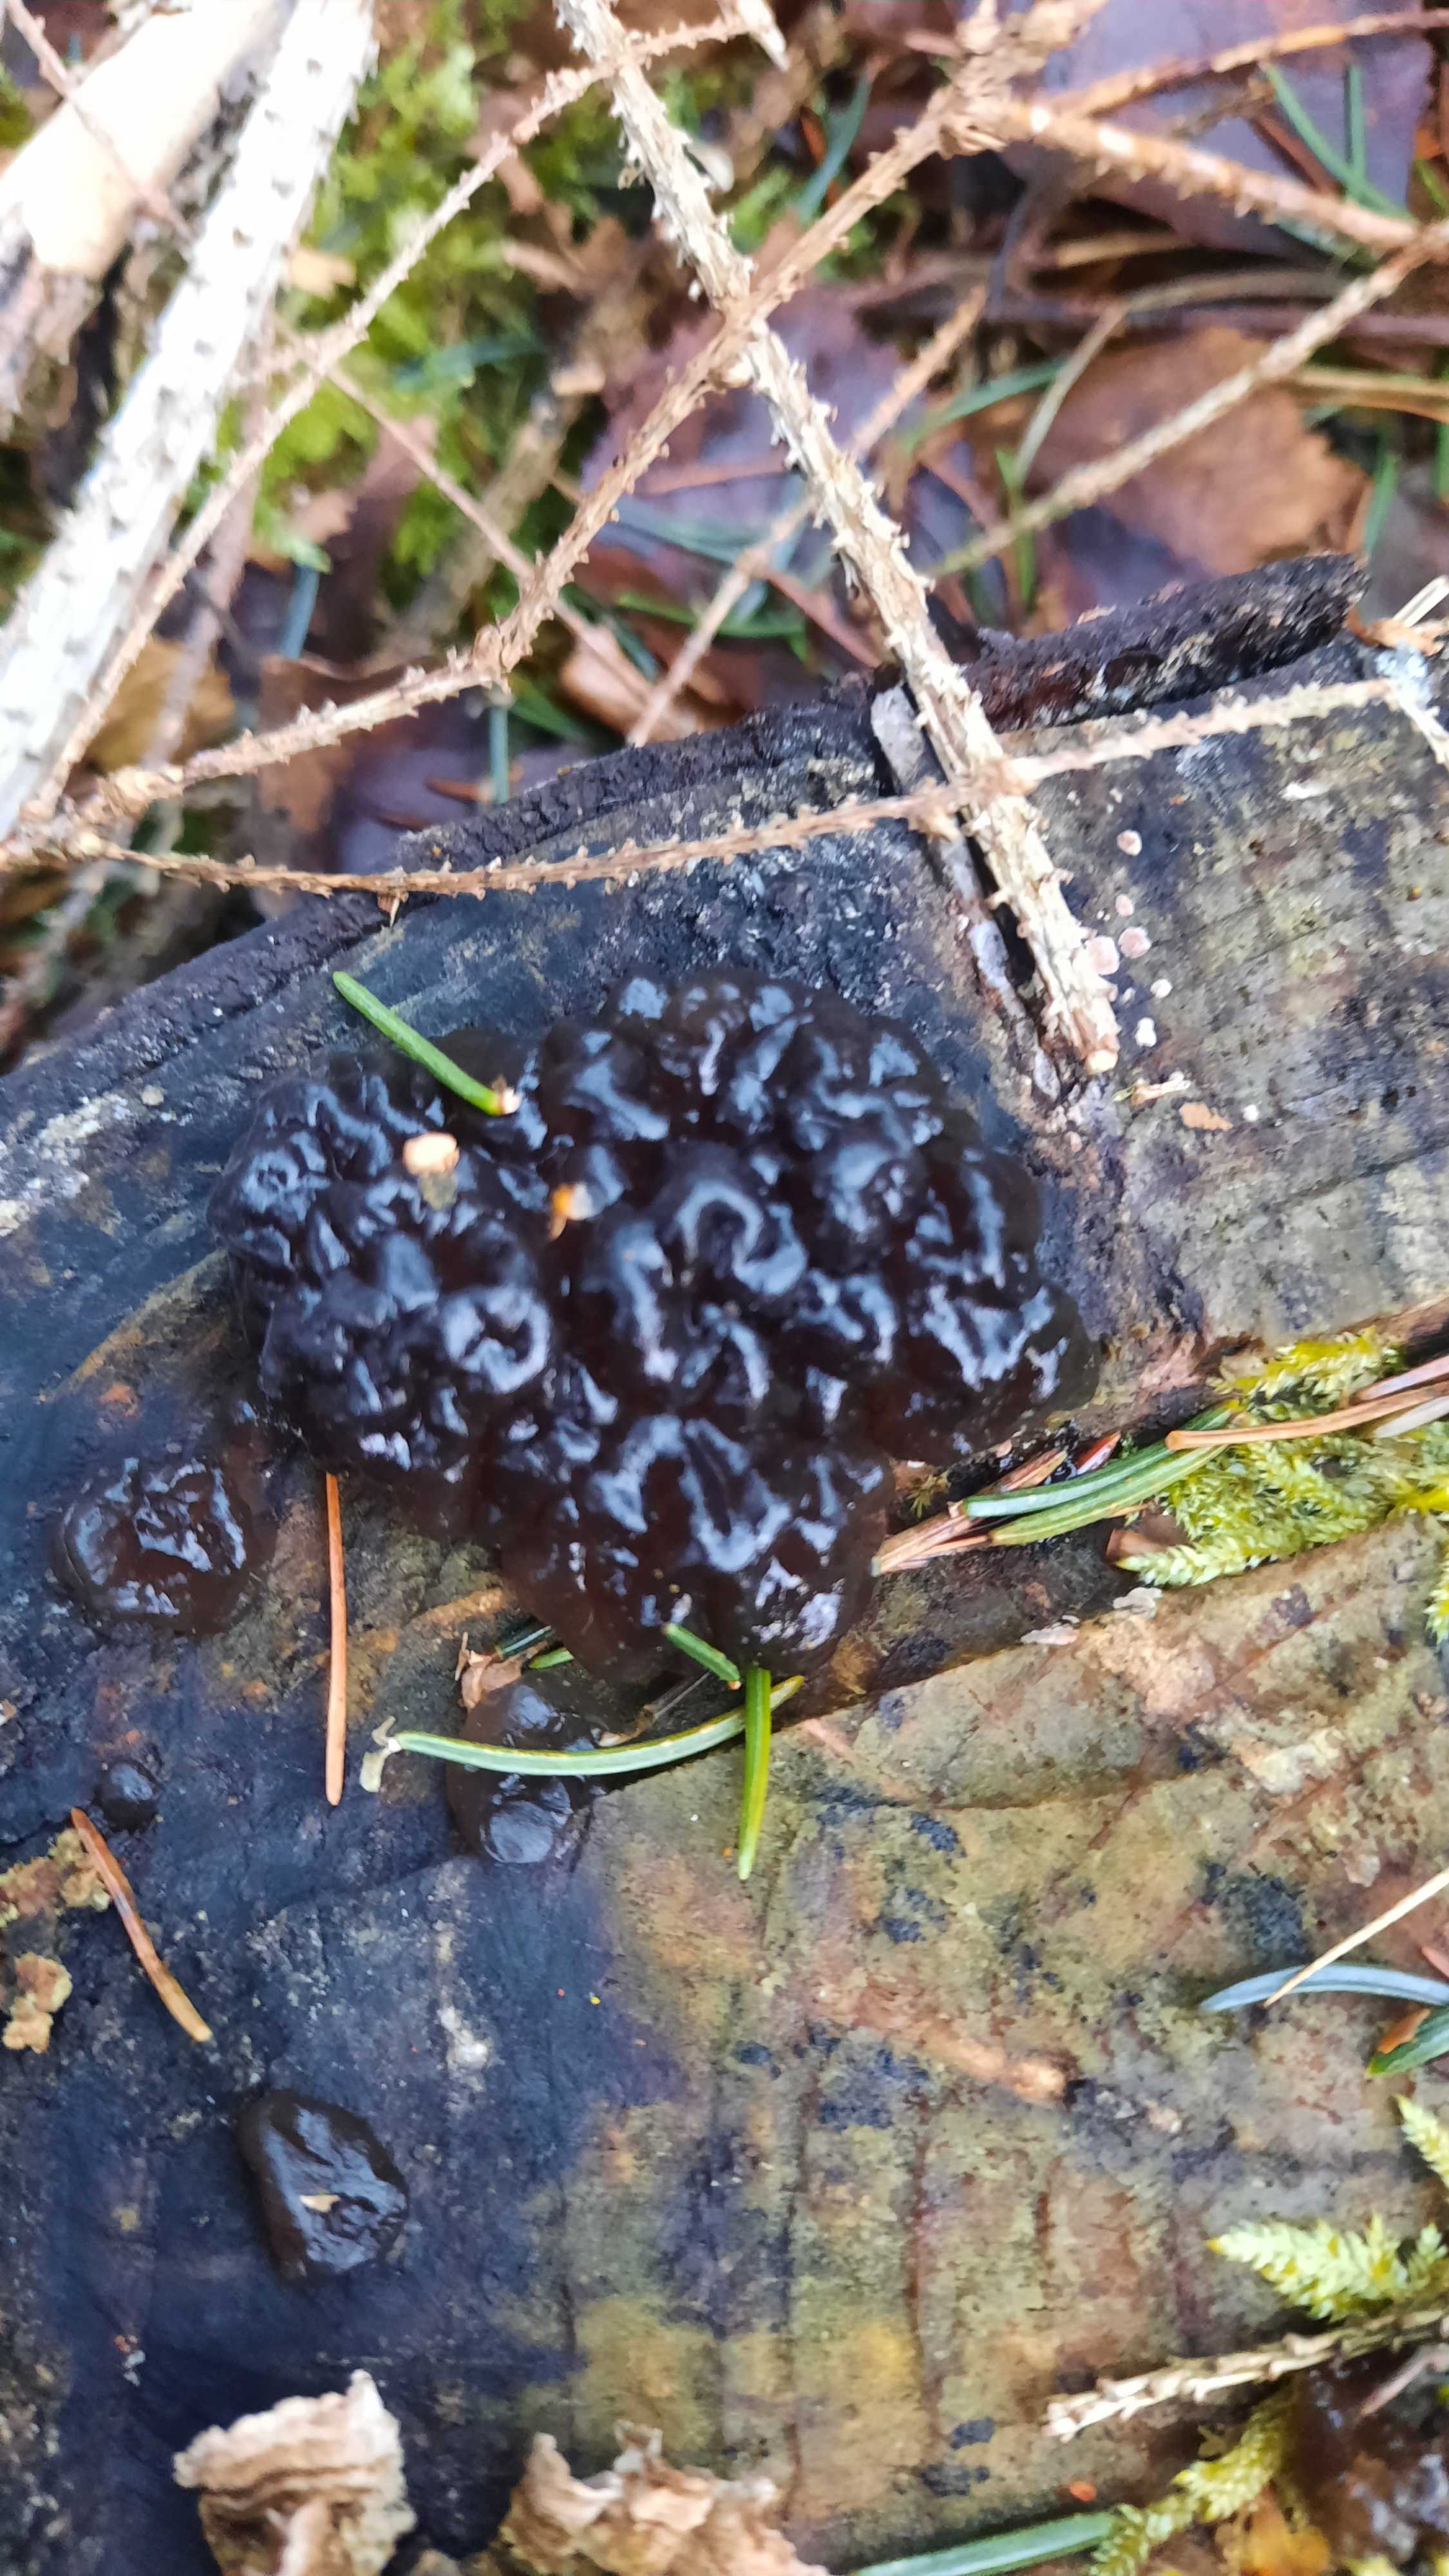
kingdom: Fungi
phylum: Basidiomycota
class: Agaricomycetes
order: Auriculariales
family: Auriculariaceae
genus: Exidia
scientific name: Exidia pithya
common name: gran-bævretop
